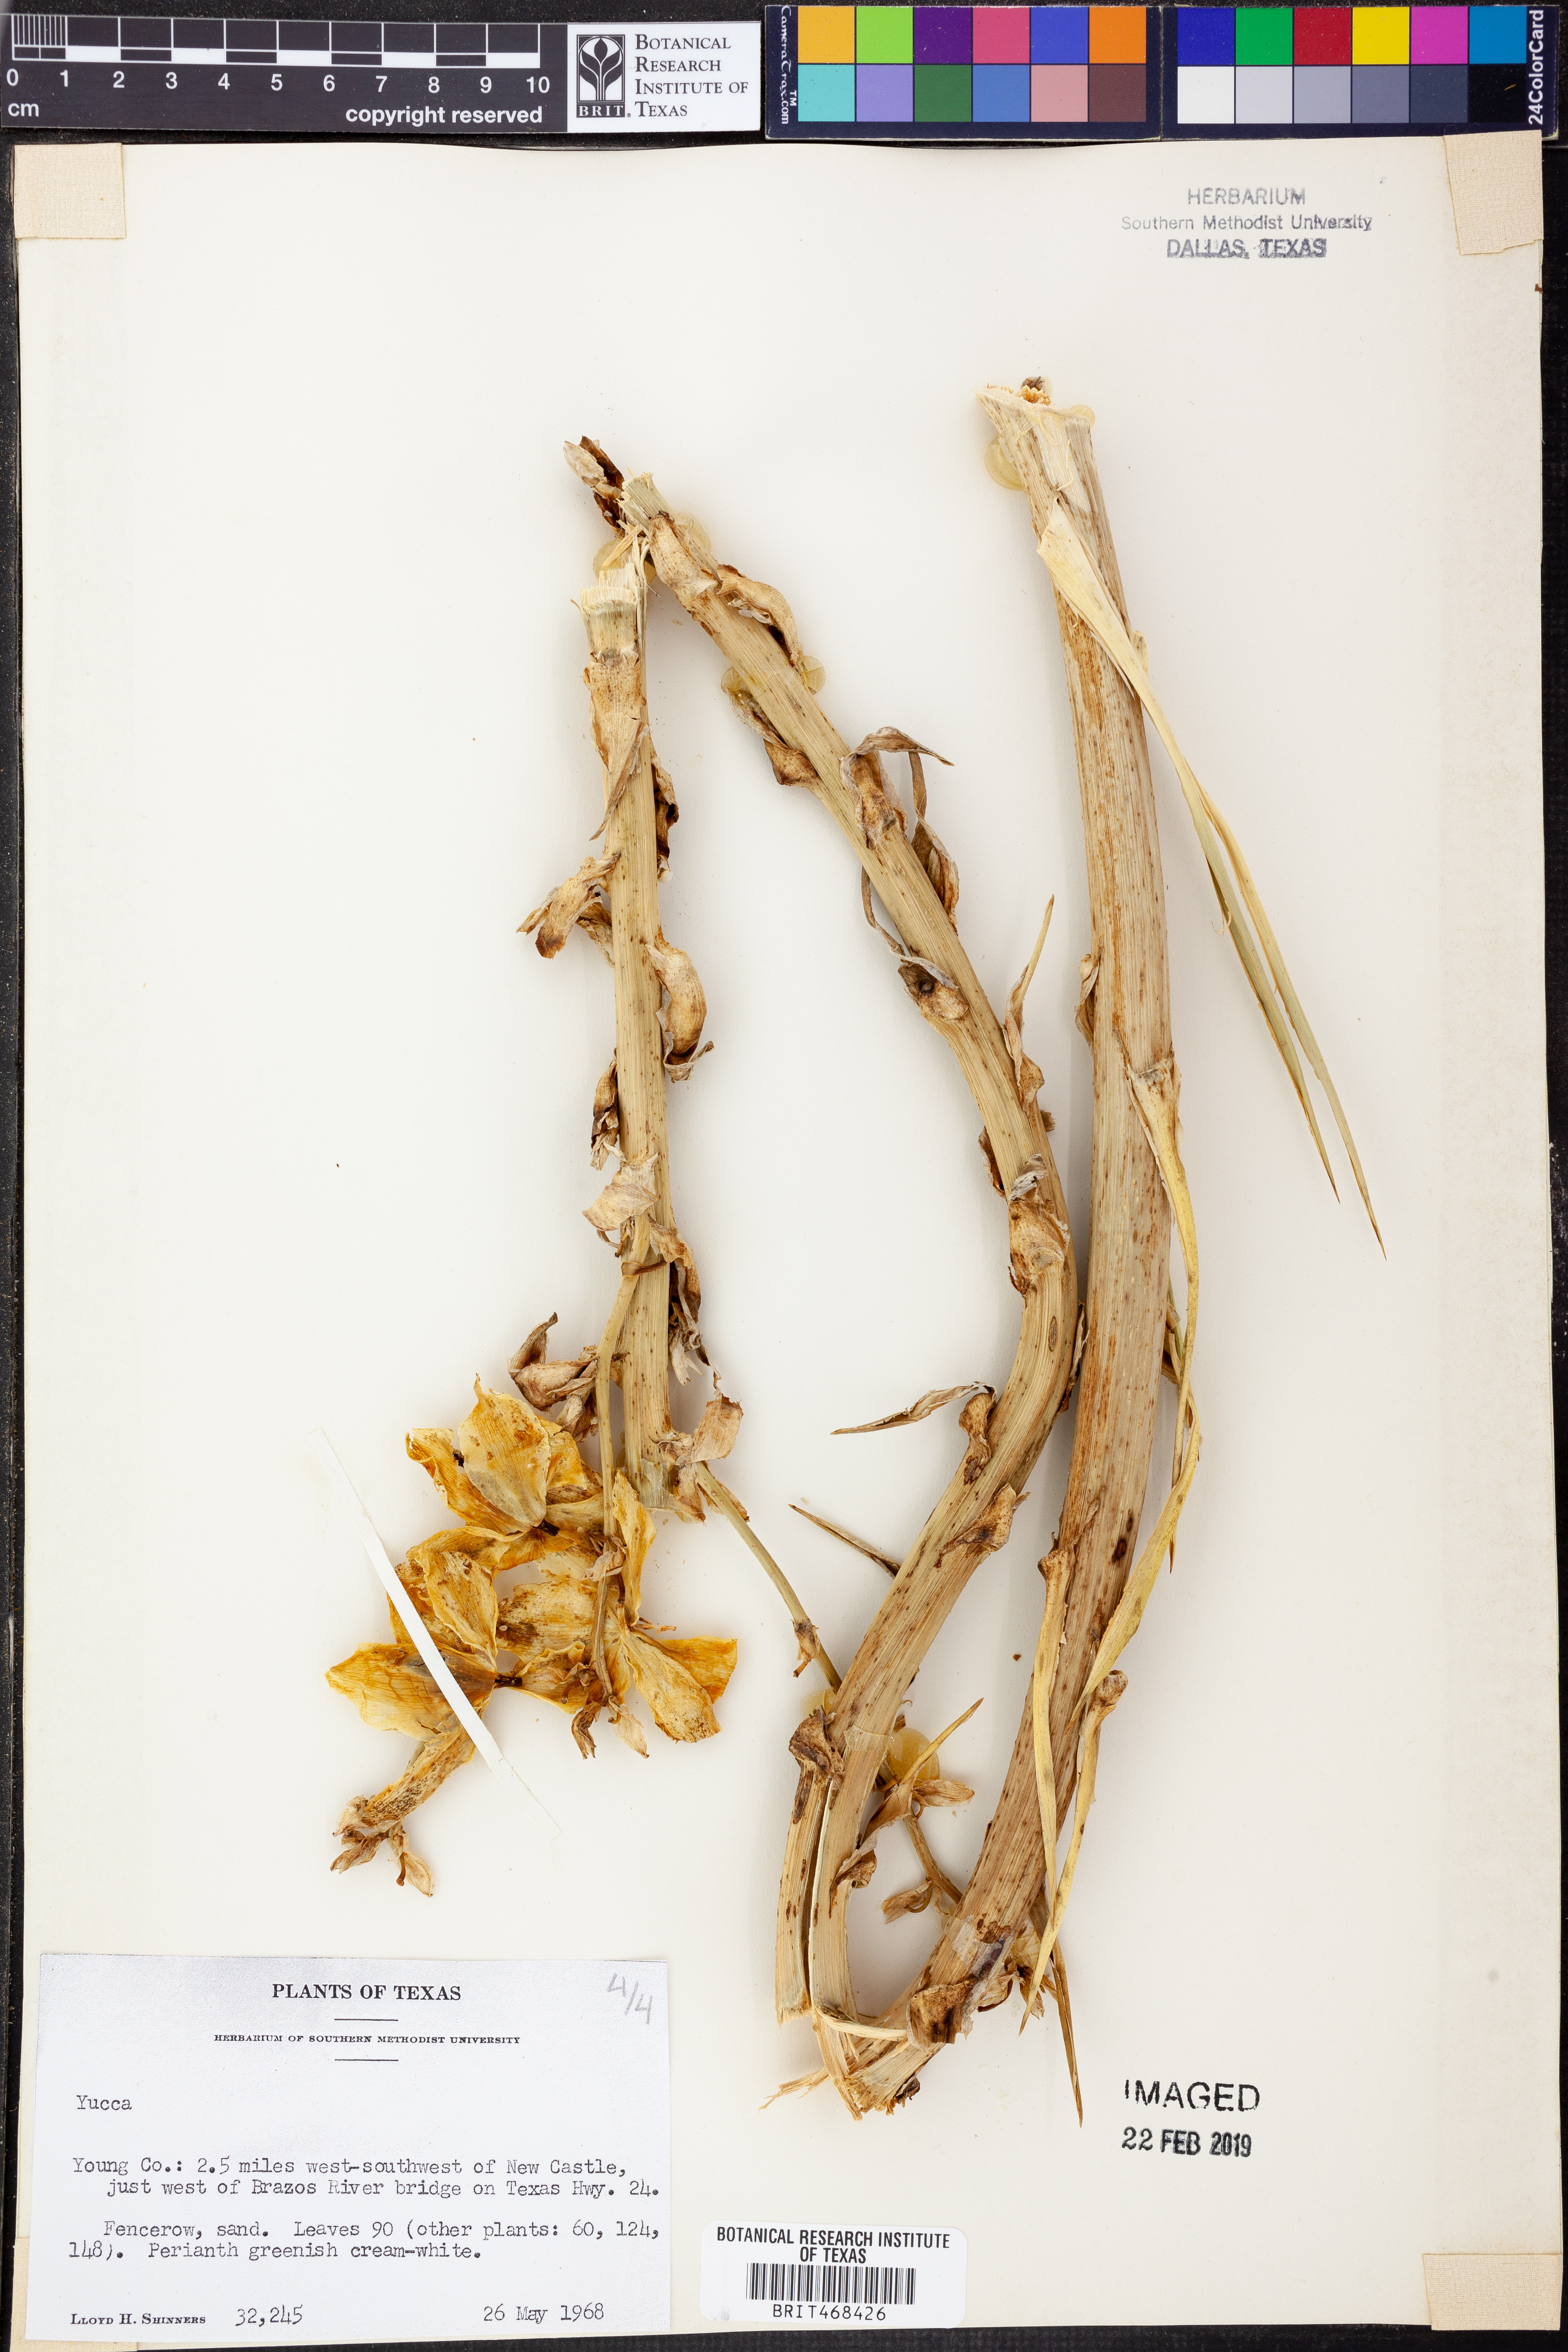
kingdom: Plantae
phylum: Tracheophyta
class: Liliopsida
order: Asparagales
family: Asparagaceae
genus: Yucca
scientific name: Yucca
